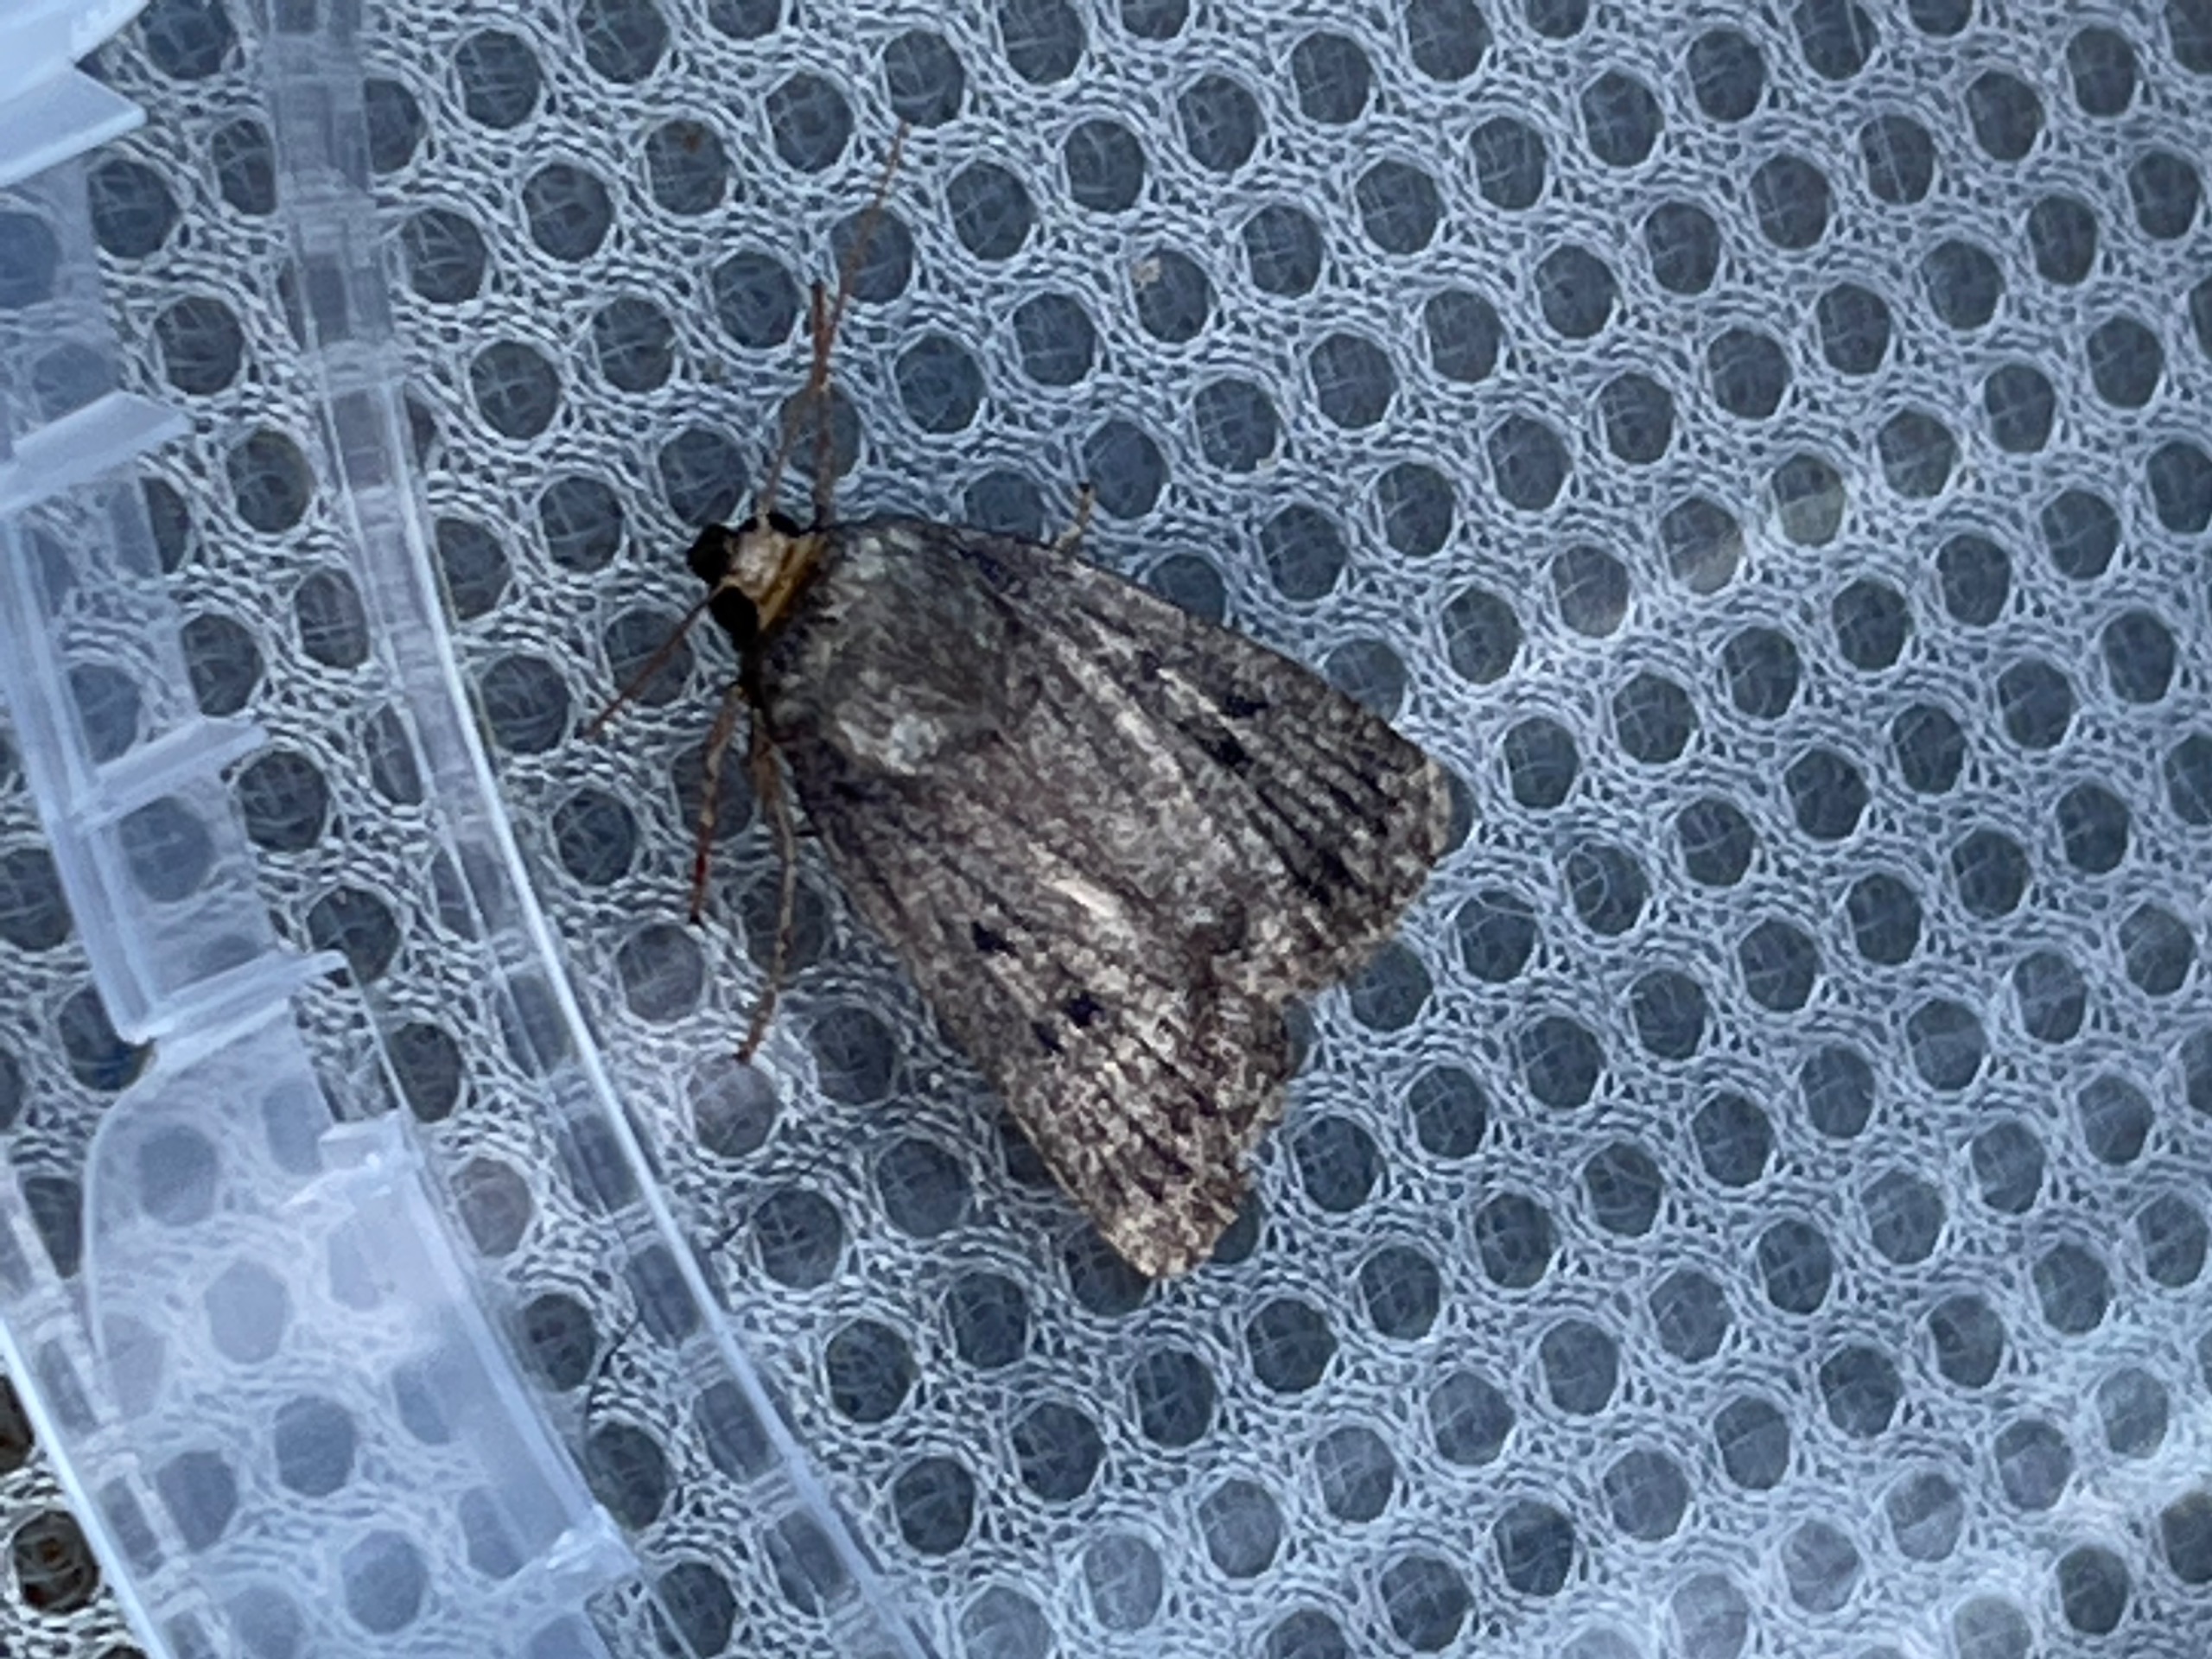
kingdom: Animalia
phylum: Arthropoda
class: Insecta
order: Lepidoptera
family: Noctuidae
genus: Amphipyra
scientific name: Amphipyra tragopoginis
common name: Blyantsugle
